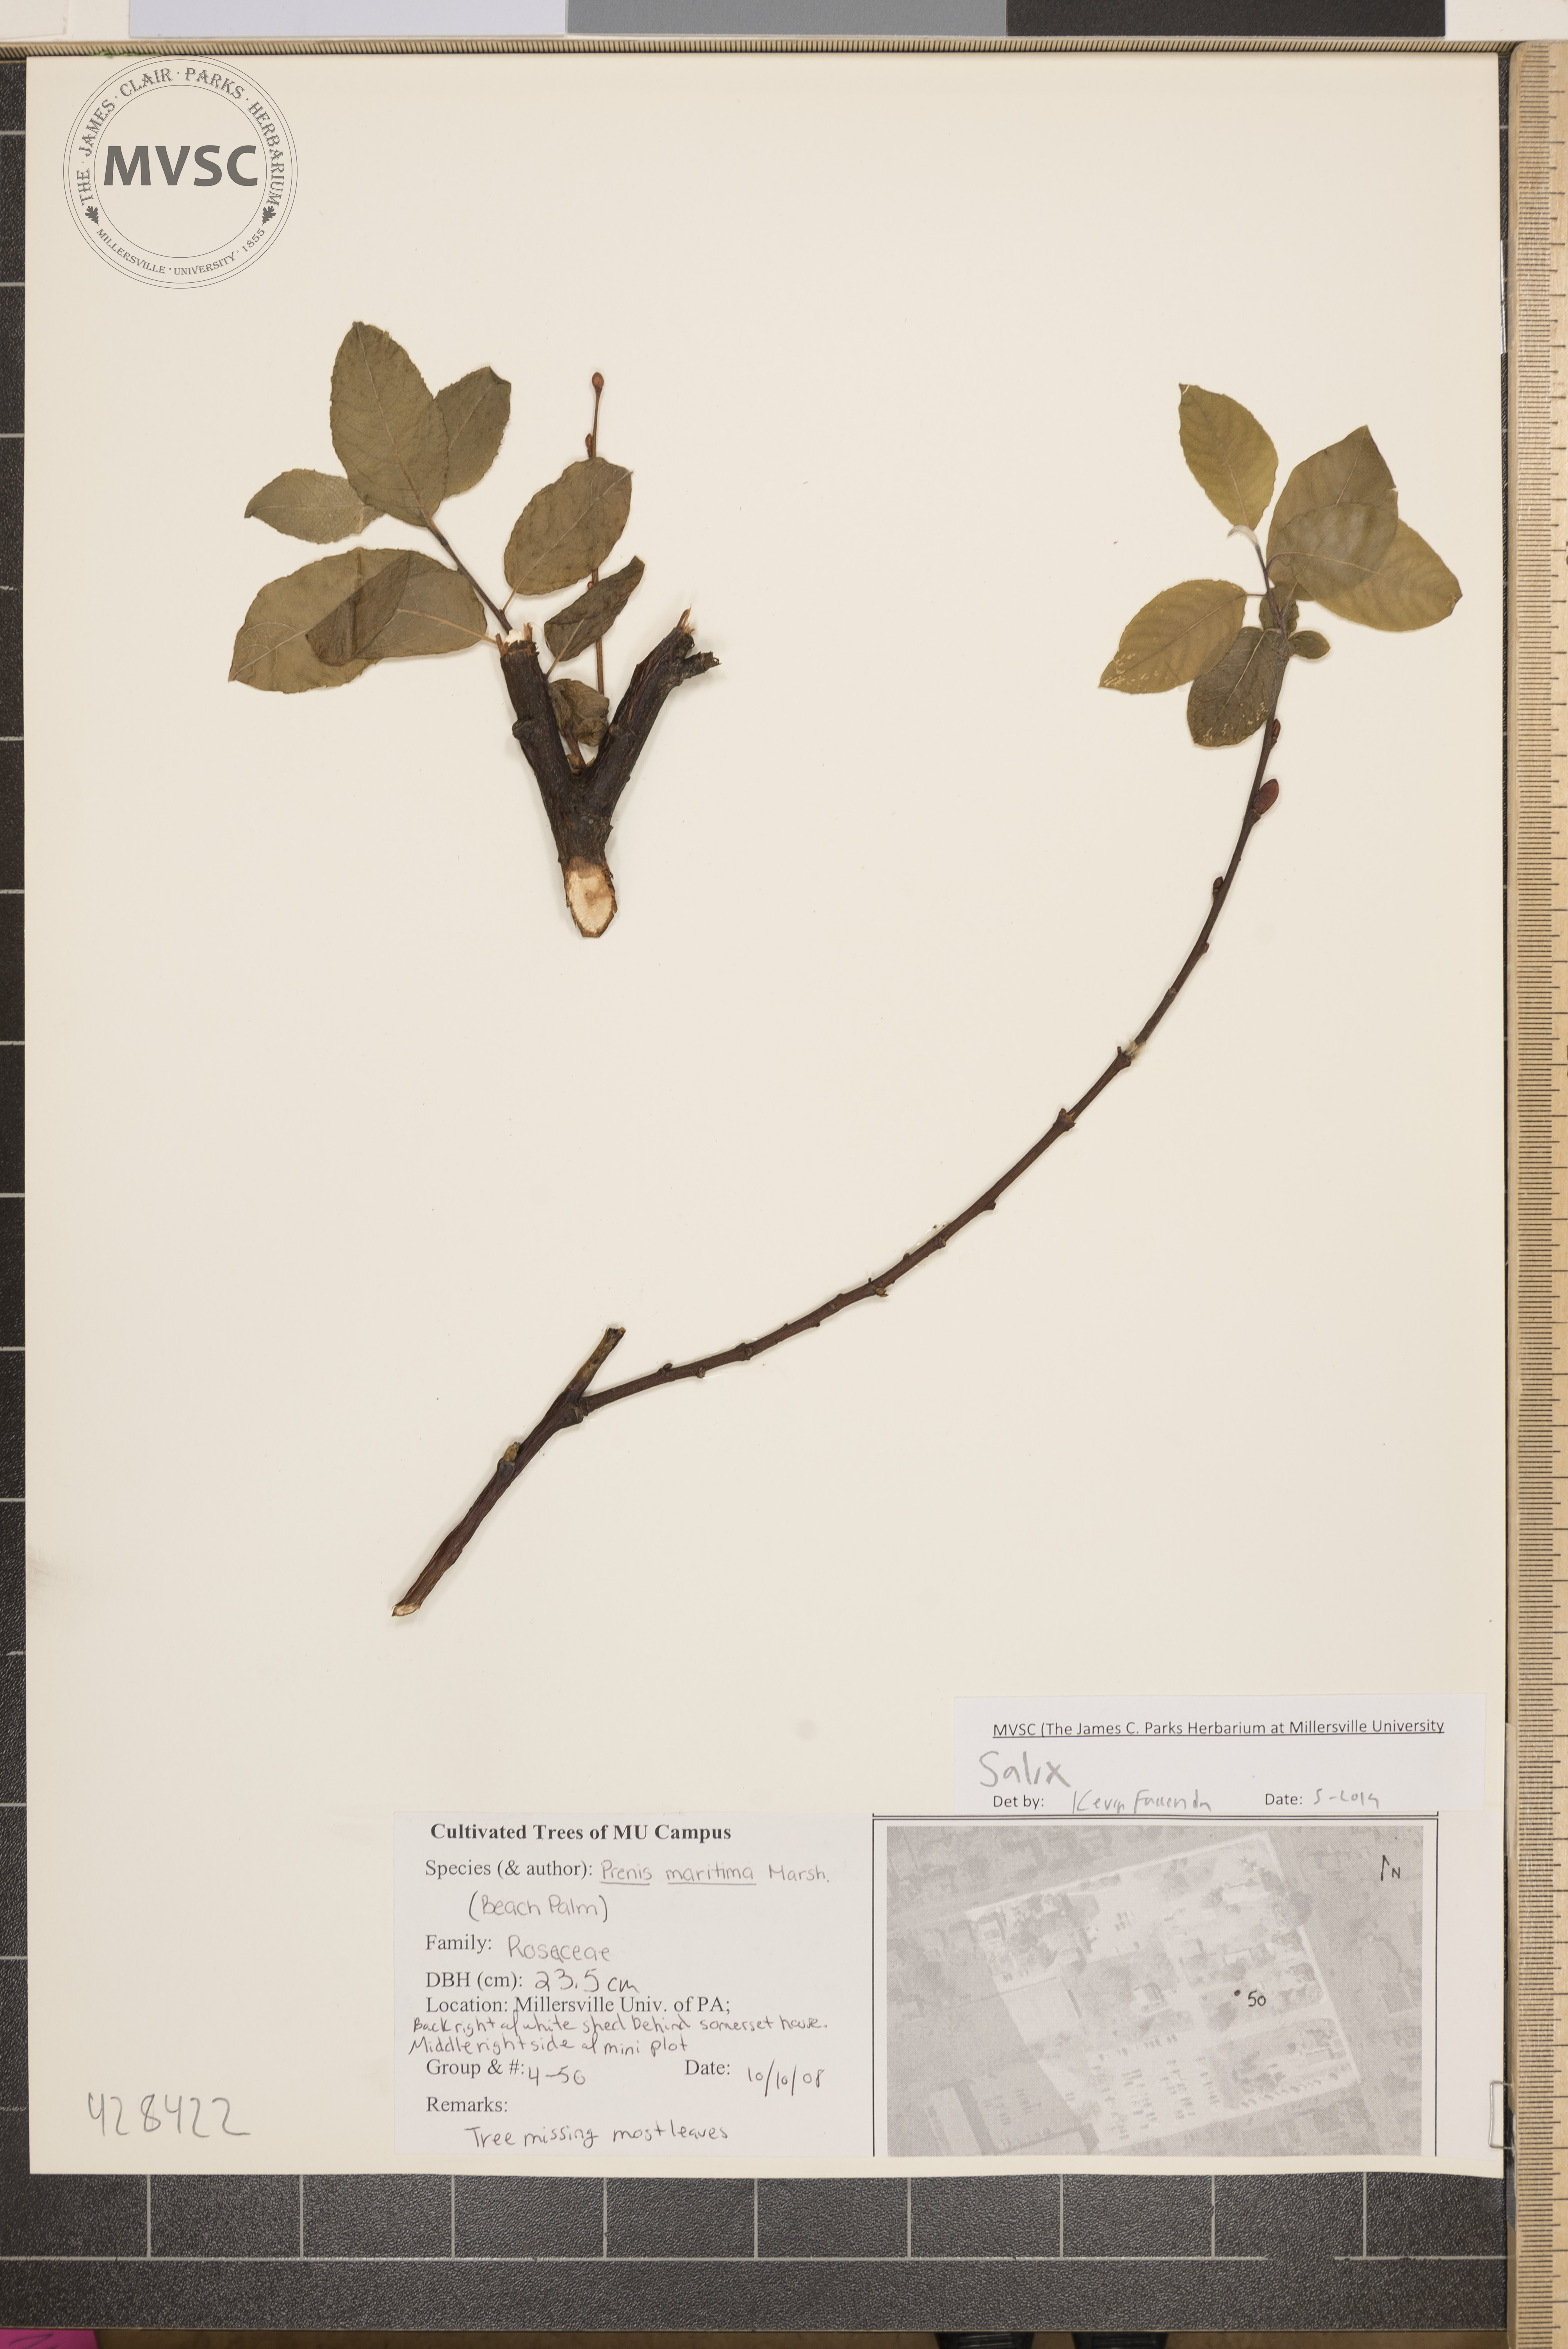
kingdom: Plantae
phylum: Tracheophyta
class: Magnoliopsida
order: Malpighiales
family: Salicaceae
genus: Salix
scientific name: Salix
